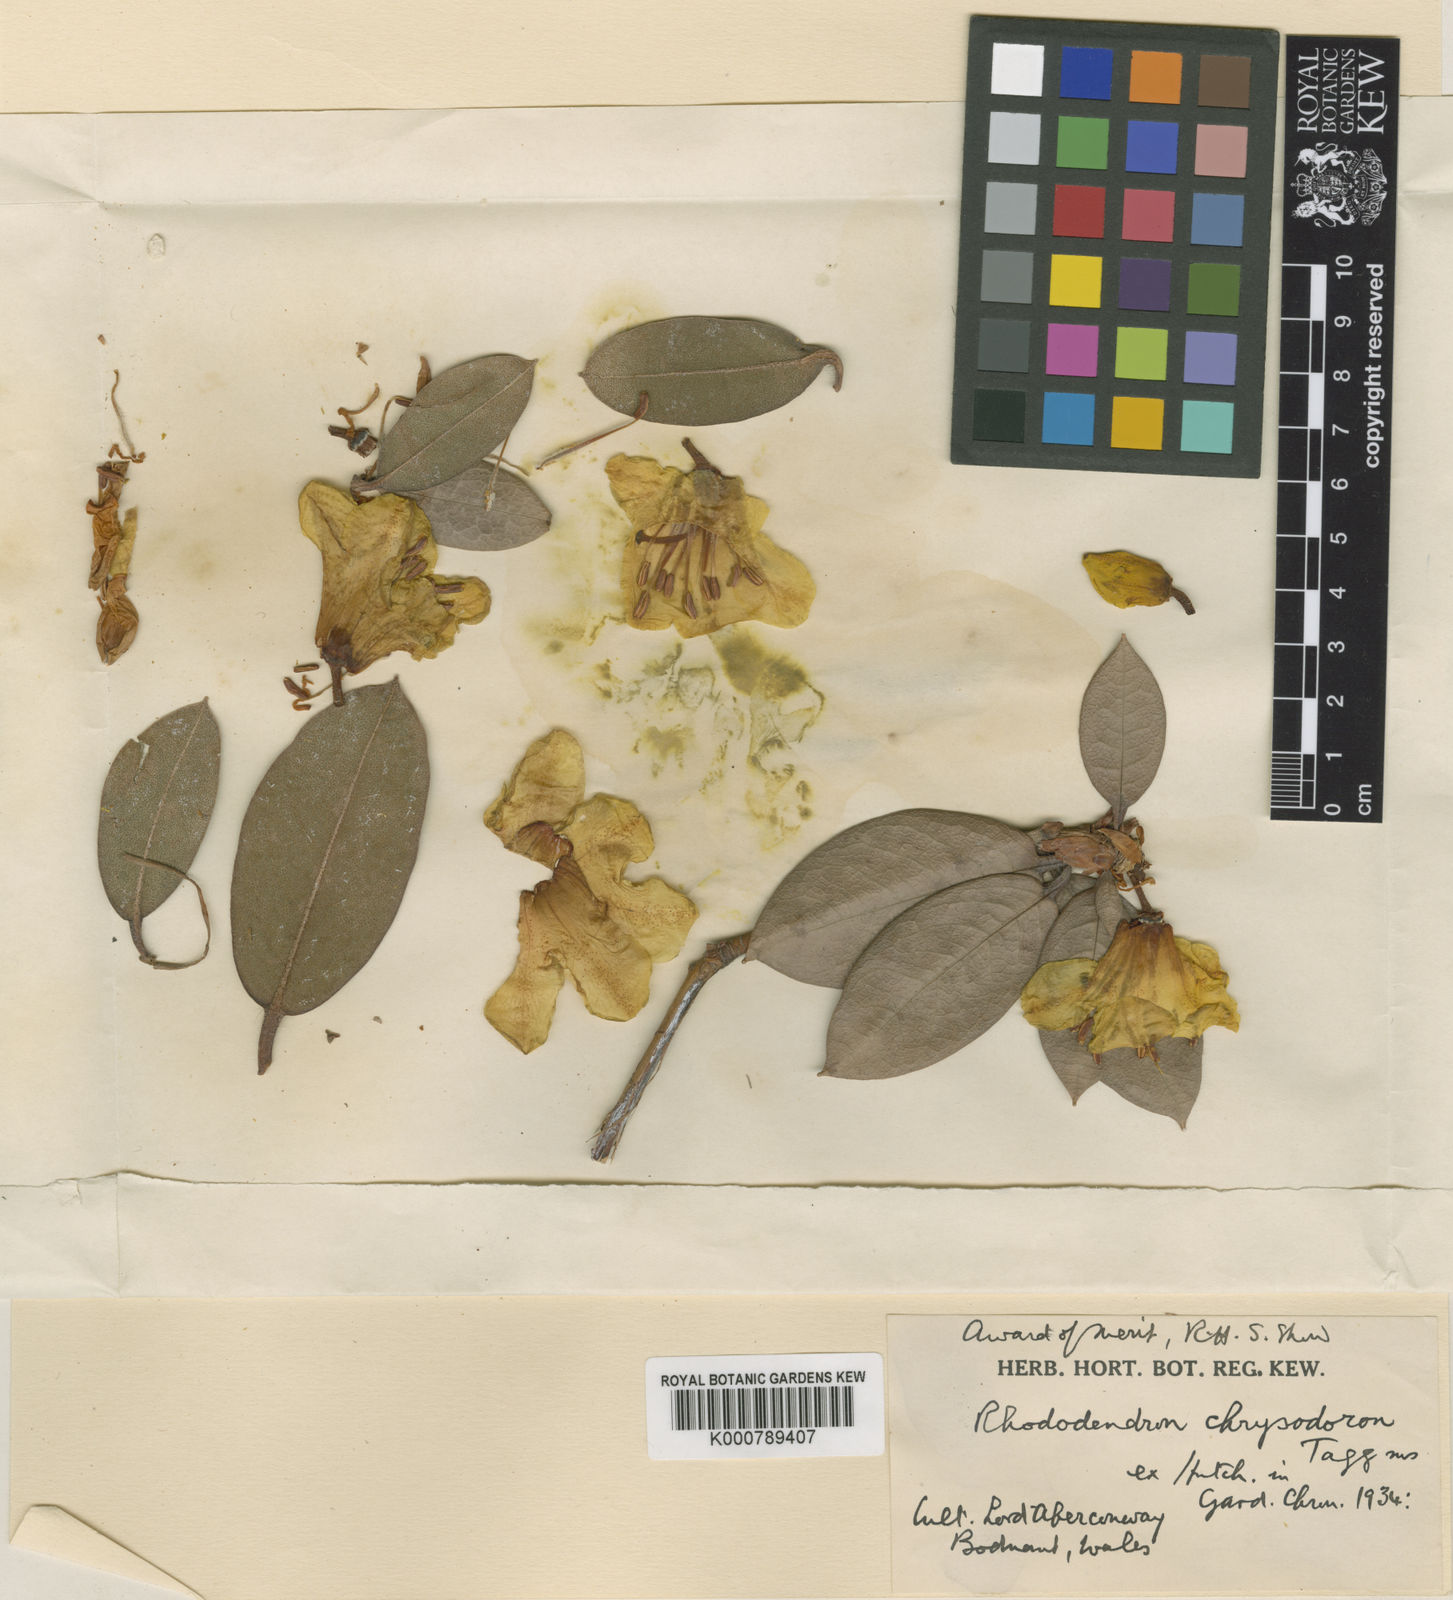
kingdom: Plantae
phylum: Tracheophyta
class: Magnoliopsida
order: Ericales
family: Ericaceae
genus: Rhododendron
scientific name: Rhododendron
